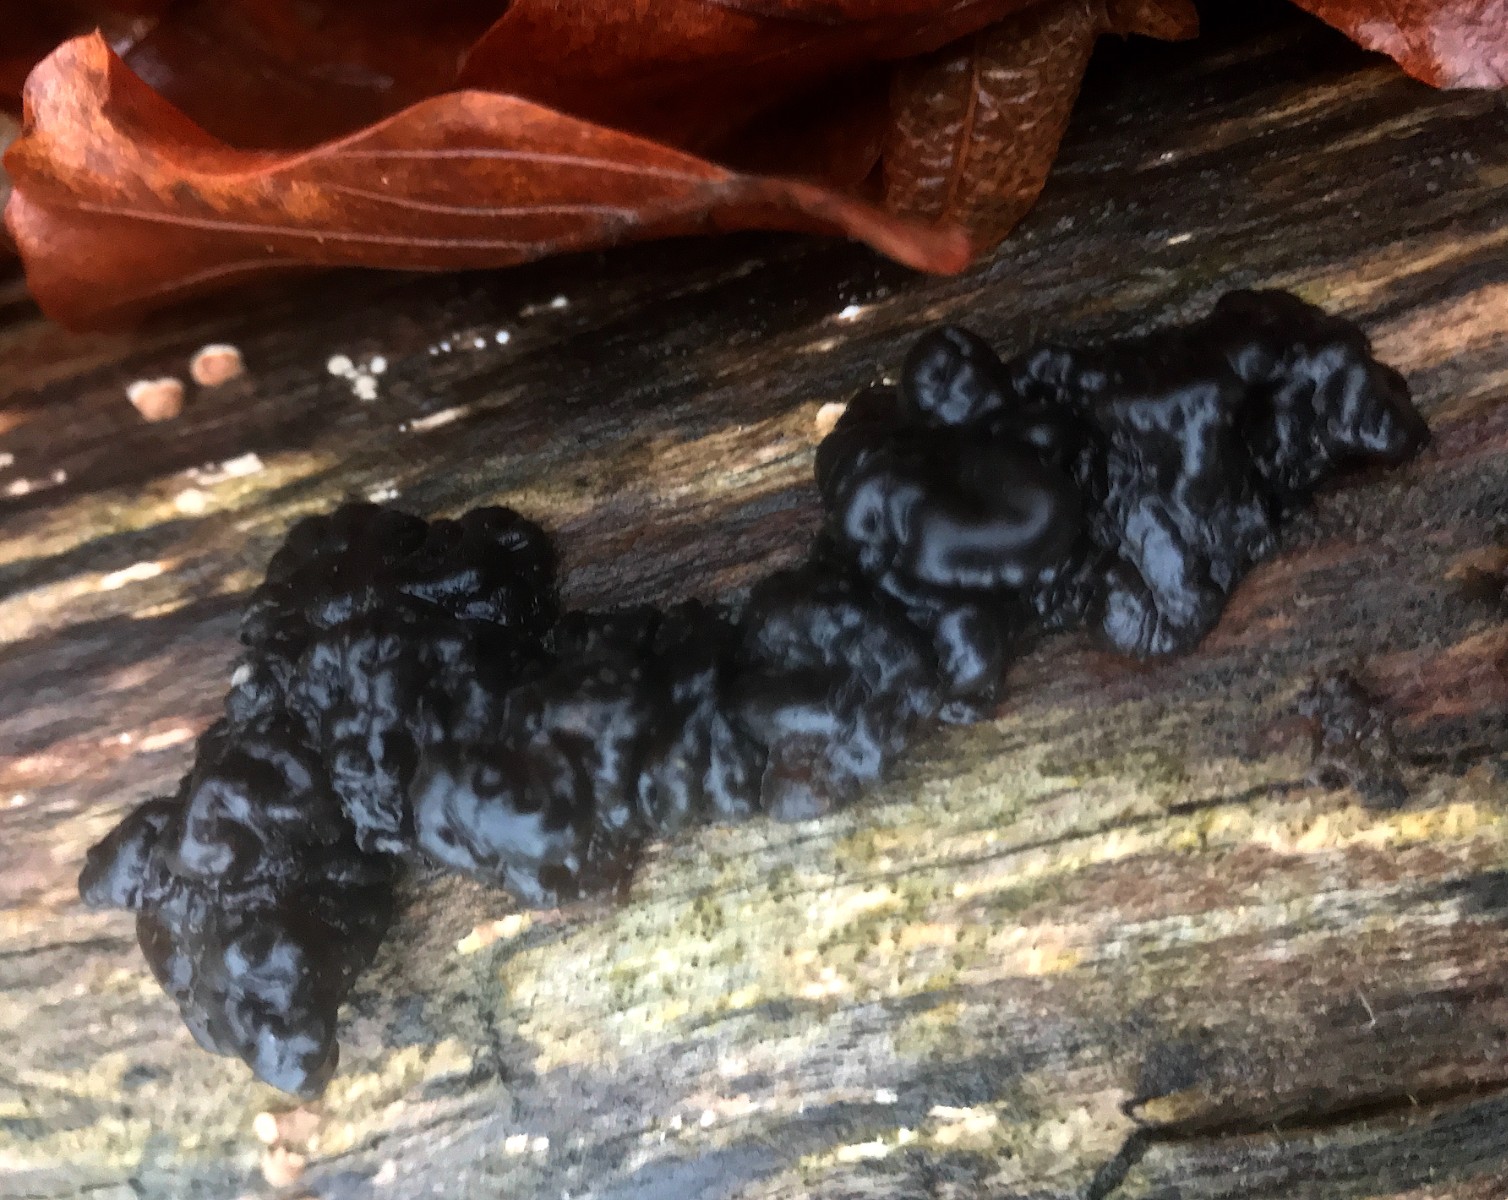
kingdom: Fungi
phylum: Basidiomycota
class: Agaricomycetes
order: Auriculariales
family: Auriculariaceae
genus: Exidia
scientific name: Exidia nigricans
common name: almindelig bævretop
